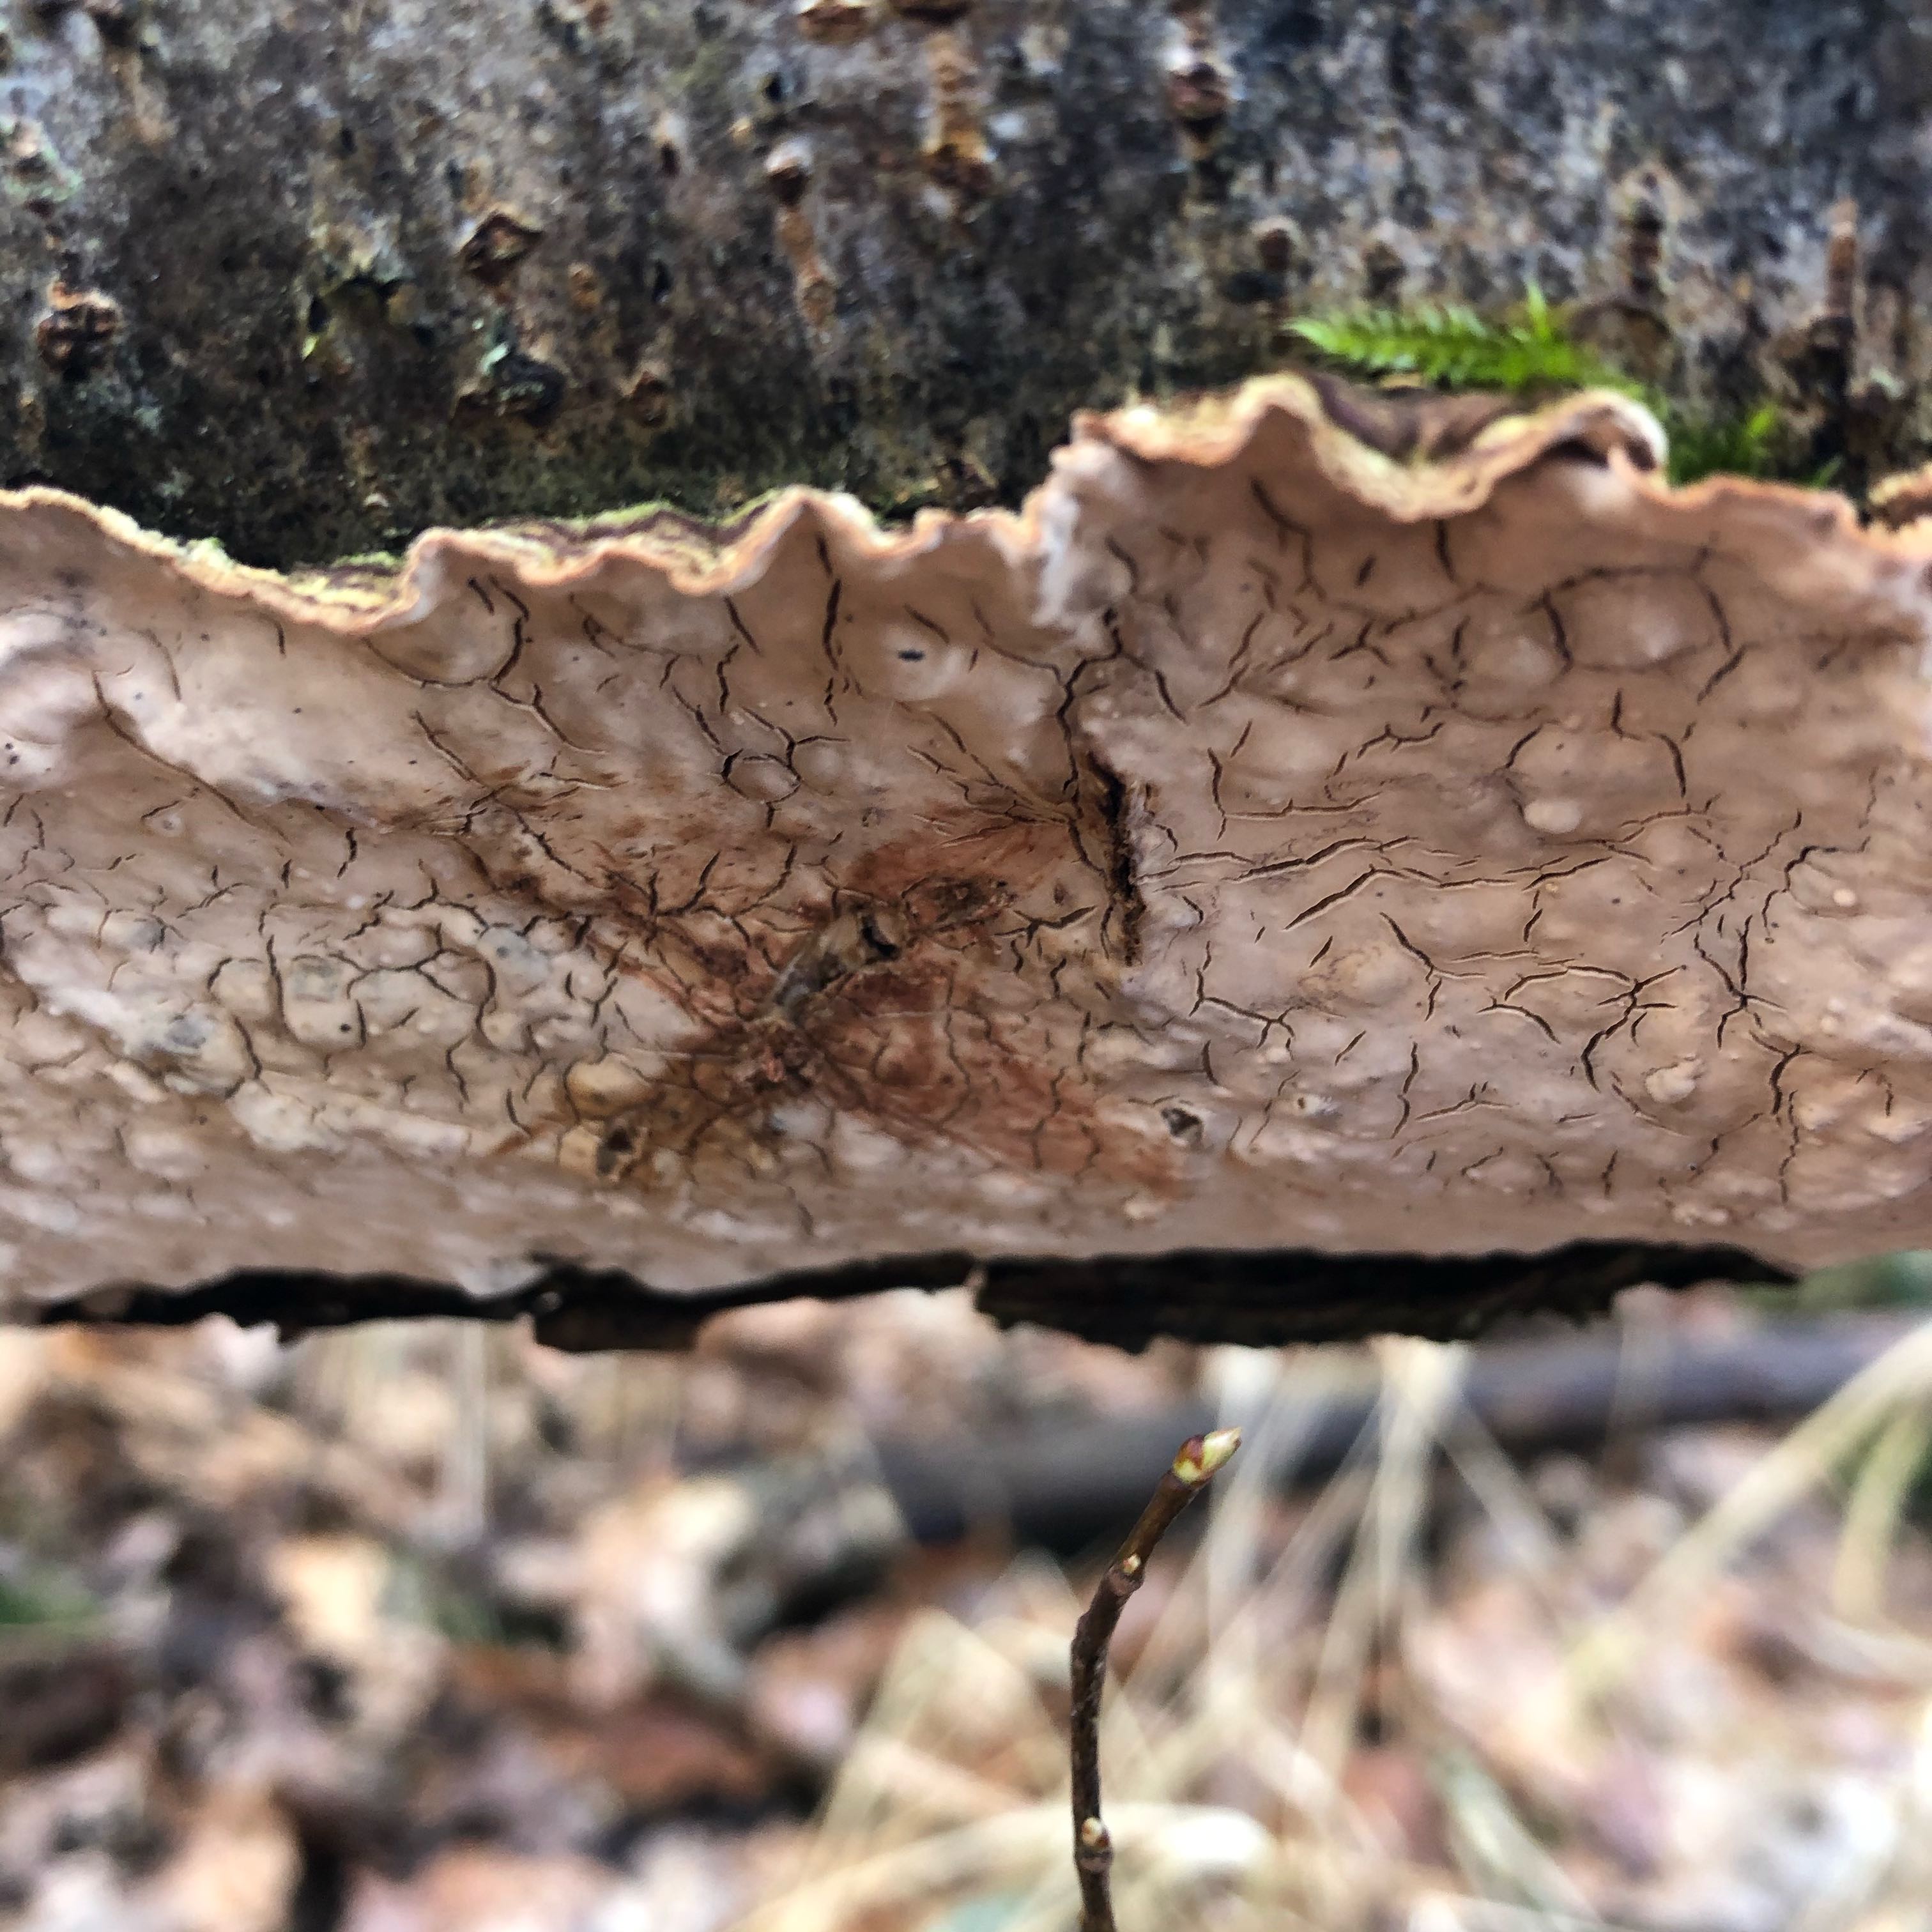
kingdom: Fungi
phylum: Basidiomycota
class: Agaricomycetes
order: Russulales
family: Stereaceae
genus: Stereum
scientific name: Stereum rugosum
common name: rynket lædersvamp
